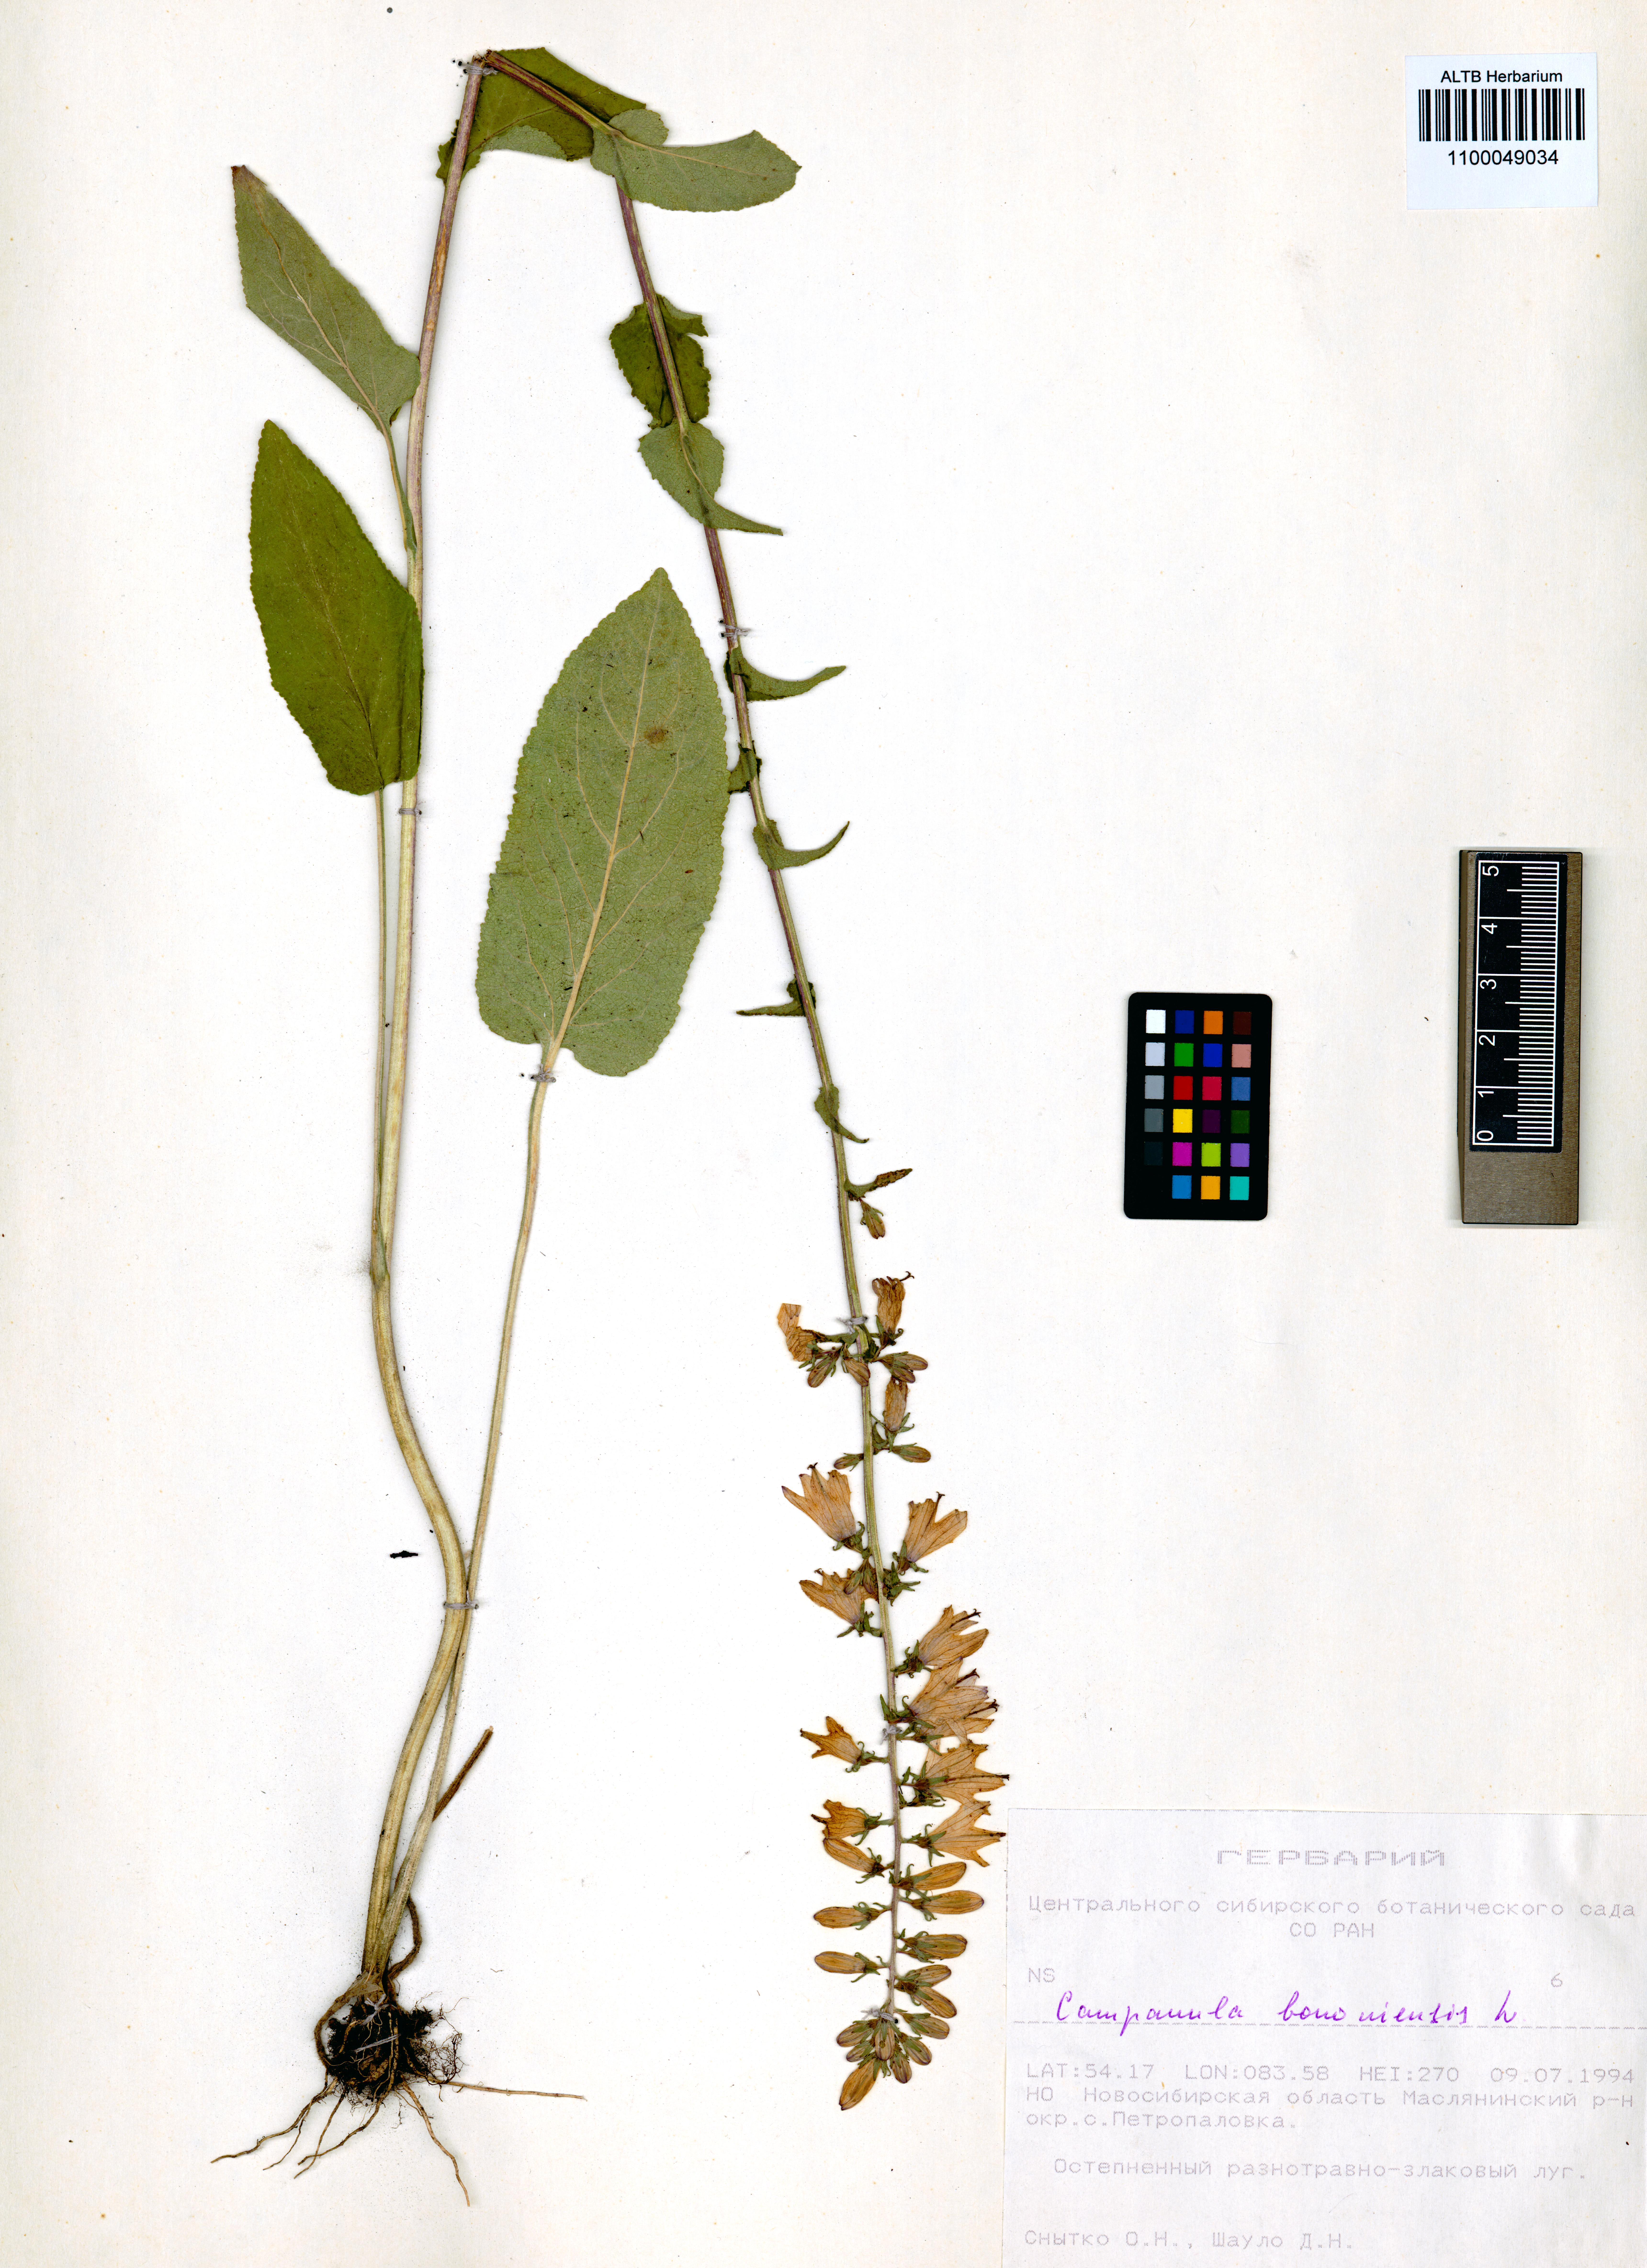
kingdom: Plantae
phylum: Tracheophyta
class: Magnoliopsida
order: Asterales
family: Campanulaceae
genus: Campanula
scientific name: Campanula bononiensis
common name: Pale bellflower
